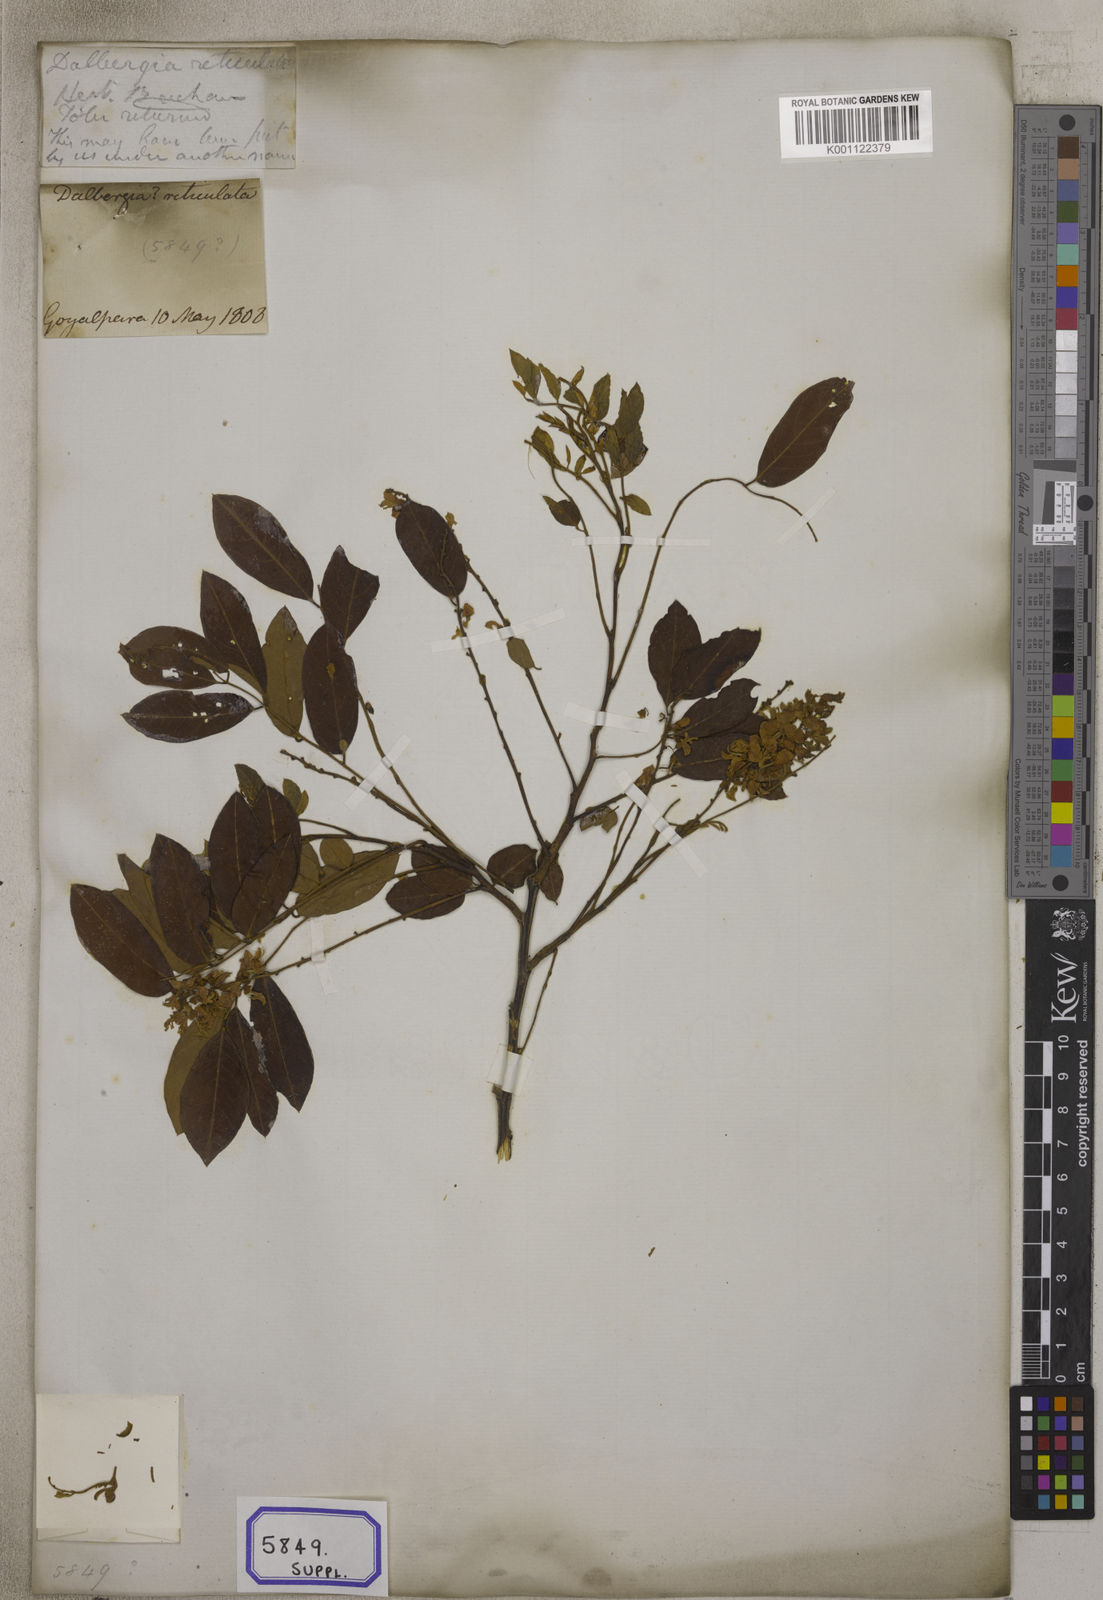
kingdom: Plantae
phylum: Tracheophyta
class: Magnoliopsida
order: Fabales
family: Fabaceae
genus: Dalbergia
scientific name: Dalbergia
